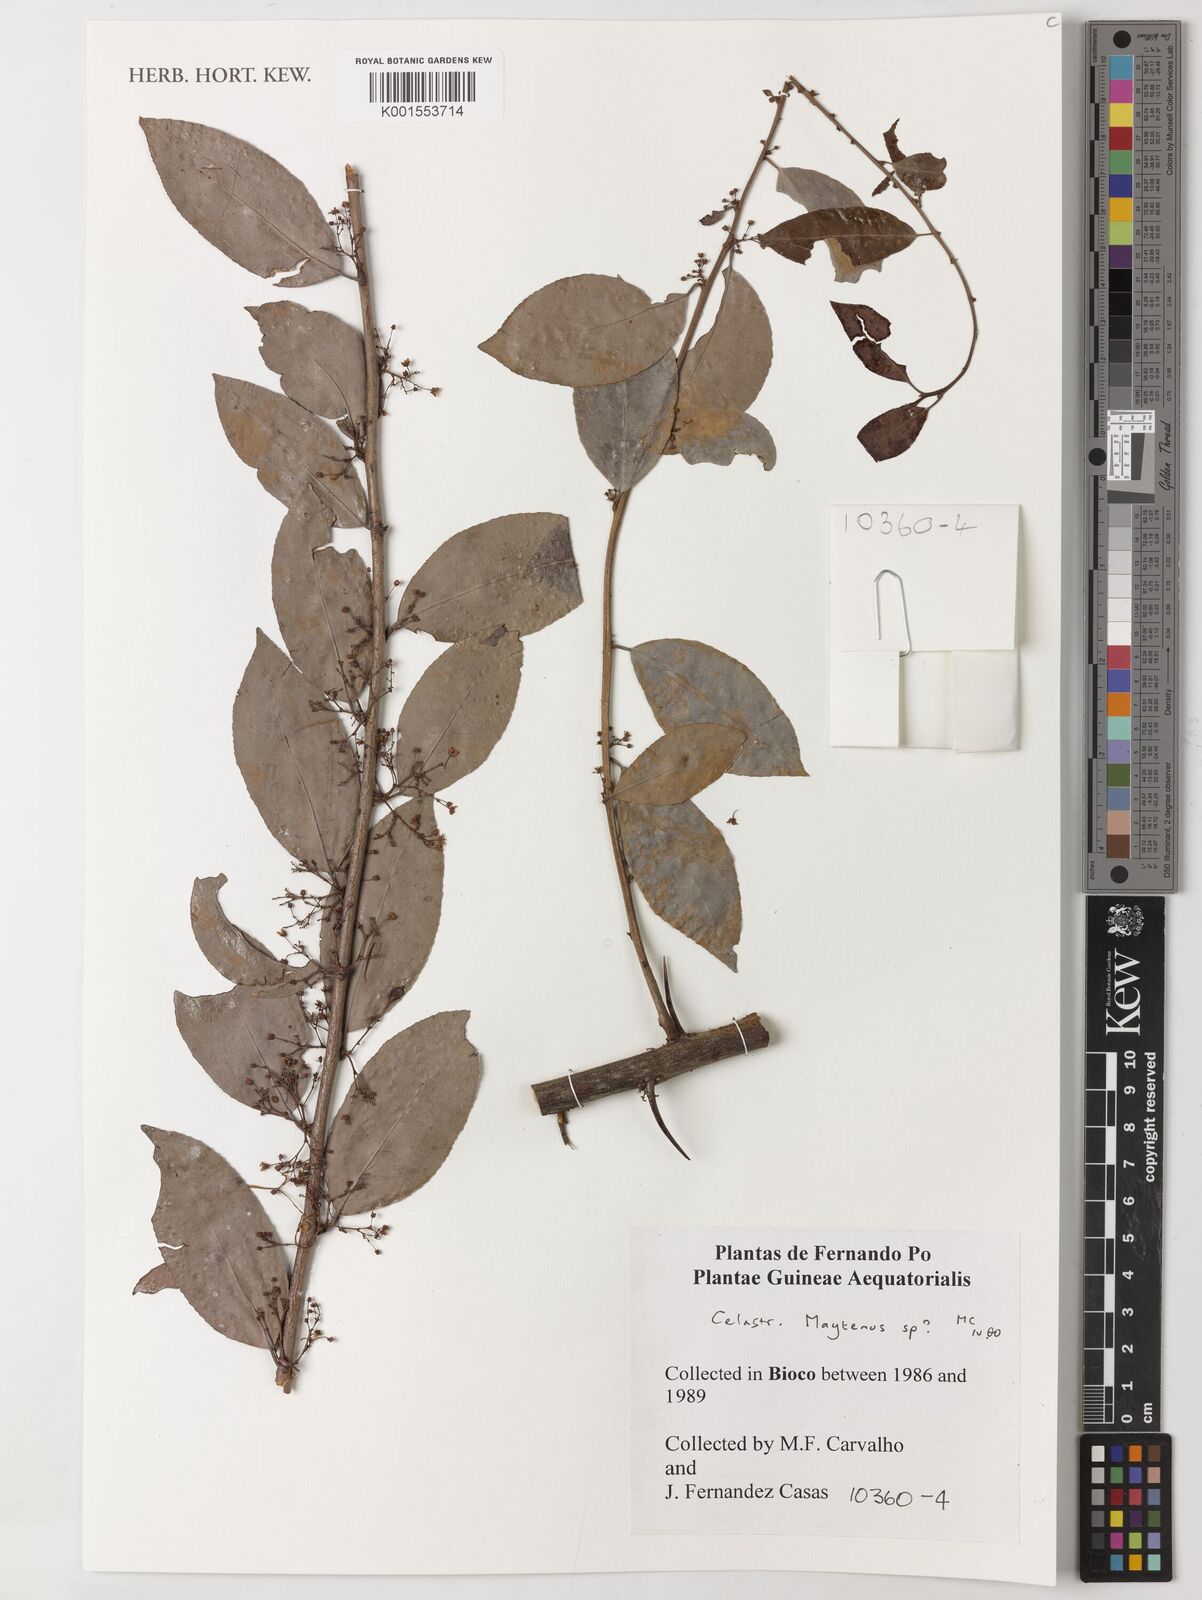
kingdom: Plantae
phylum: Tracheophyta
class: Magnoliopsida
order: Celastrales
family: Celastraceae
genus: Maytenus
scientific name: Maytenus
